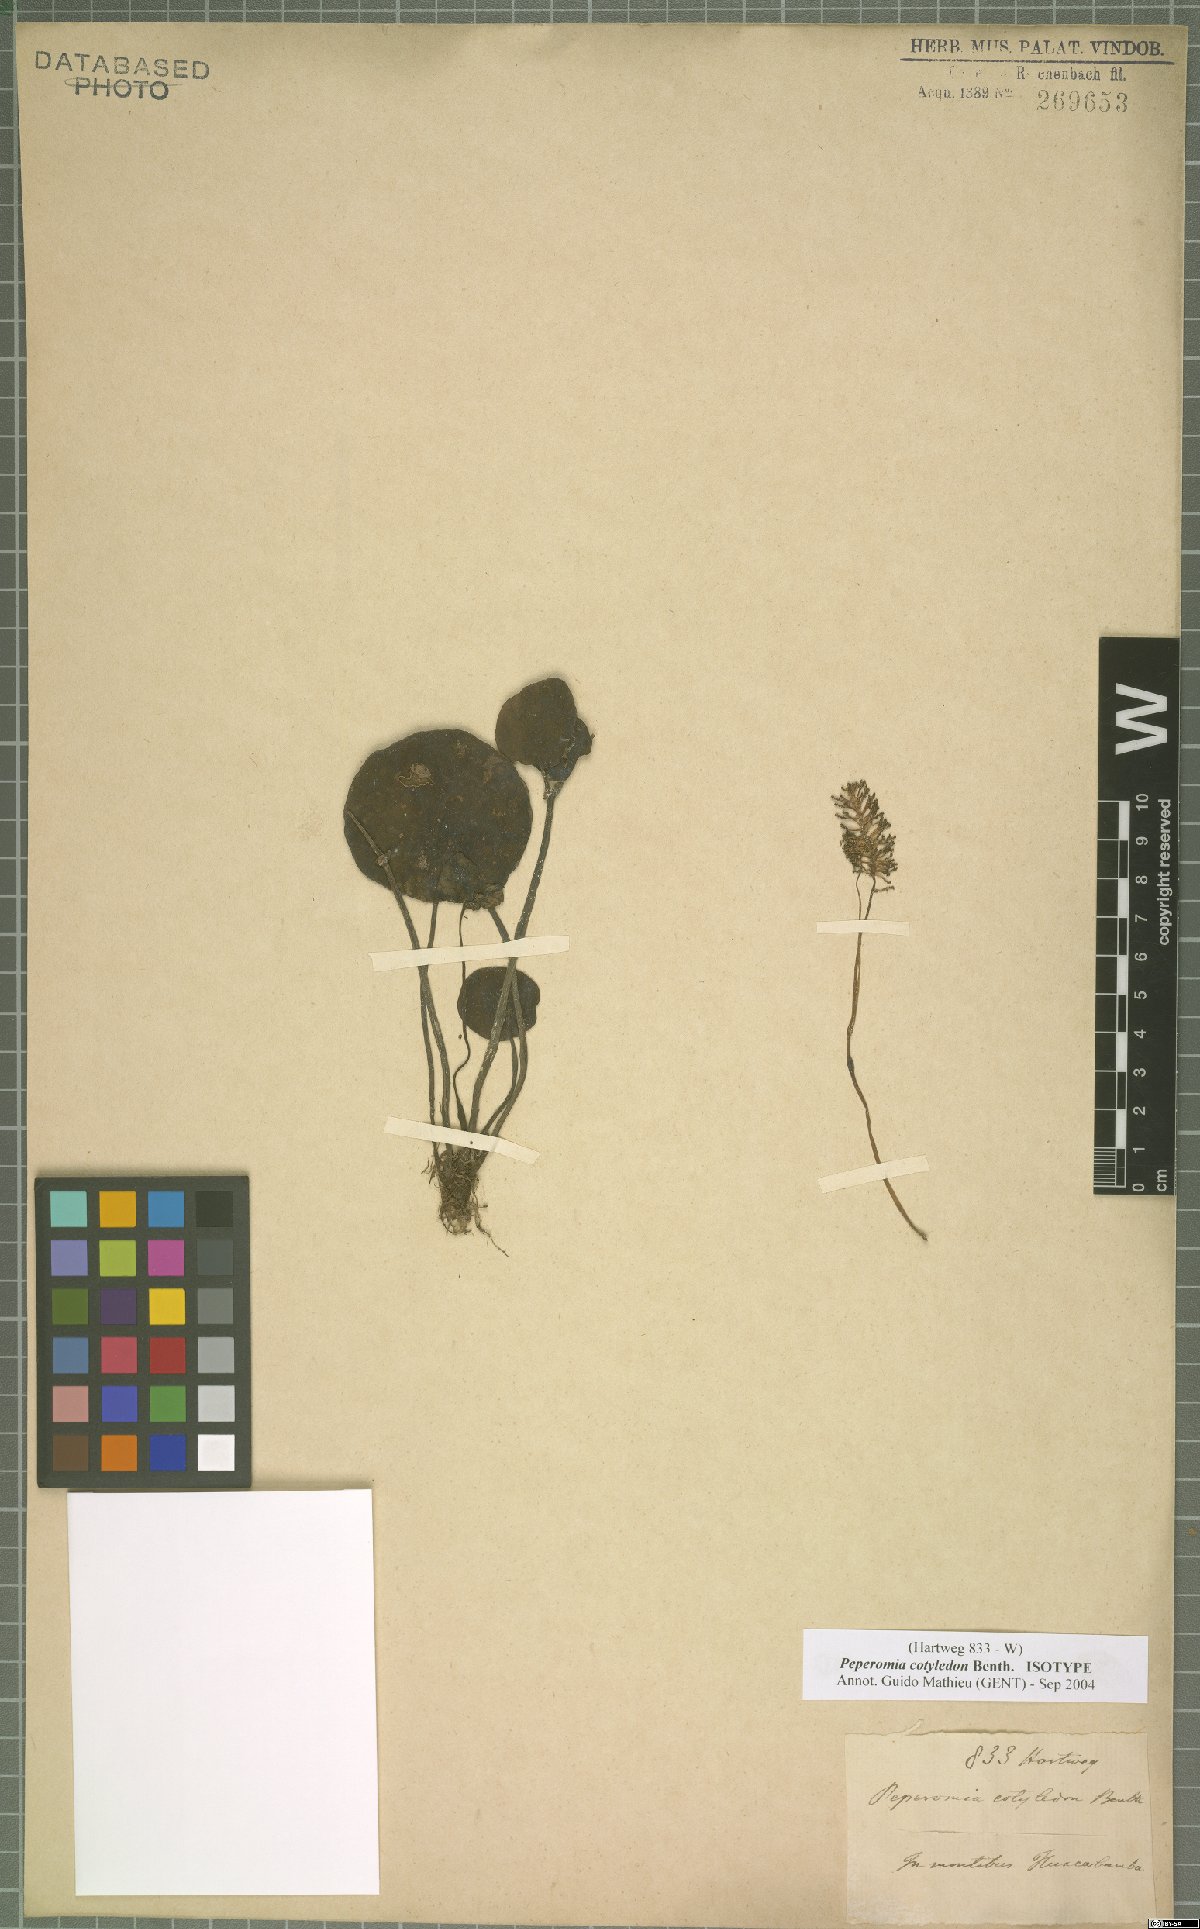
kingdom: Plantae
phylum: Tracheophyta
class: Magnoliopsida
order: Piperales
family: Piperaceae
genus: Peperomia
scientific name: Peperomia cotyledon
